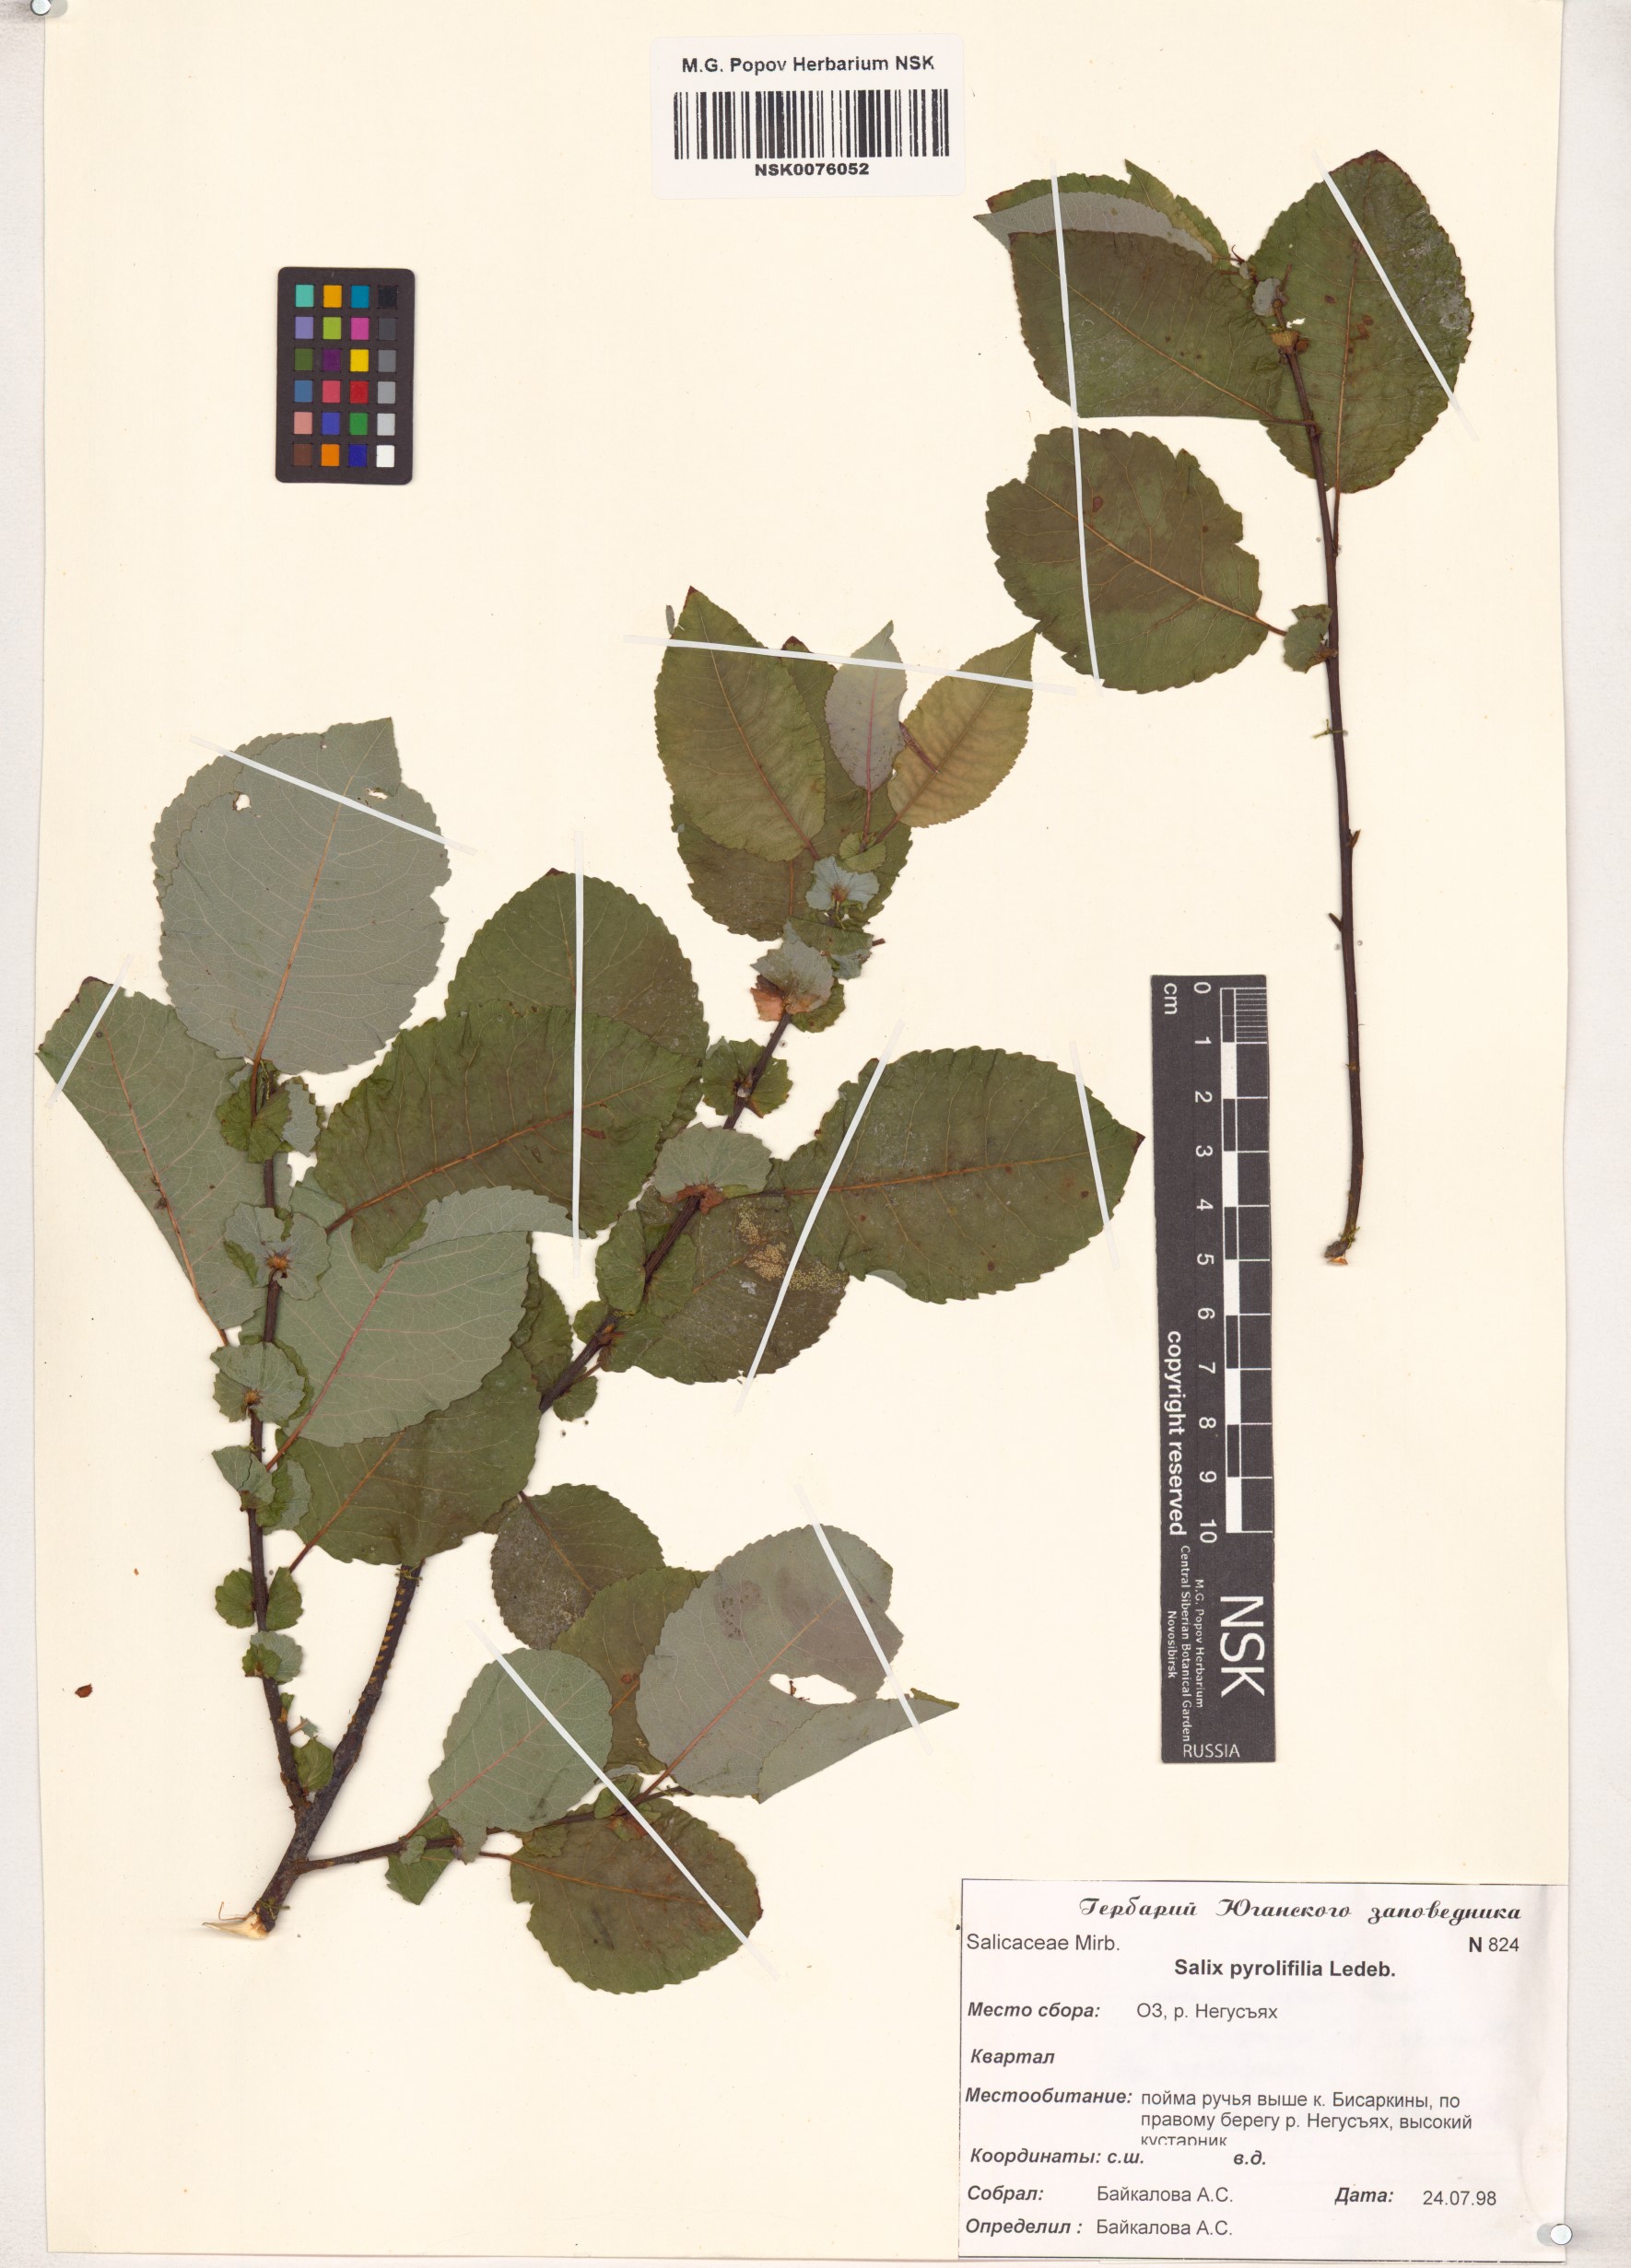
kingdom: Plantae
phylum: Tracheophyta
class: Magnoliopsida
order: Malpighiales
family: Salicaceae
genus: Salix
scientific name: Salix pyrolifolia
